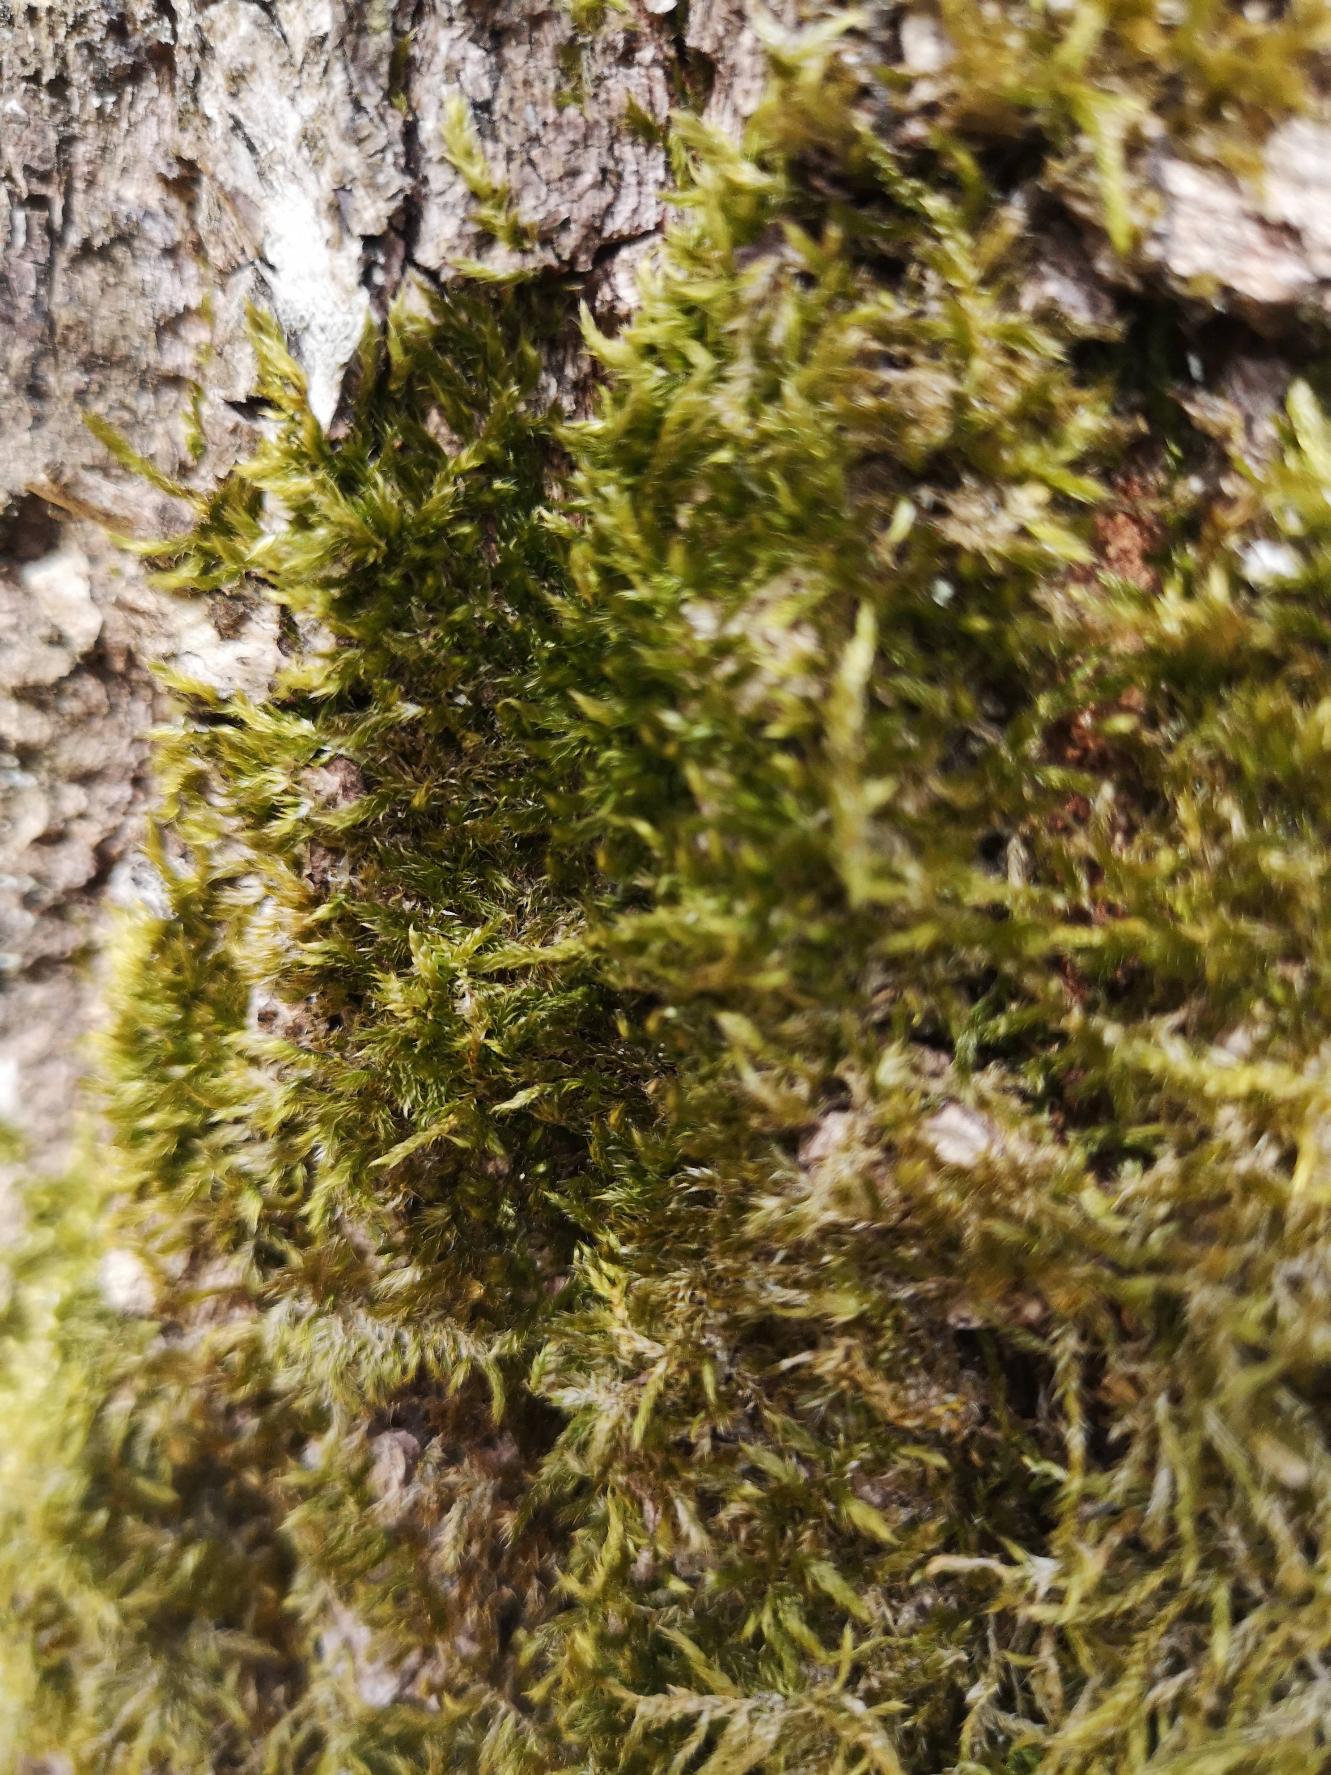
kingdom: Plantae
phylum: Bryophyta
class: Bryopsida
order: Hypnales
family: Hypnaceae
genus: Hypnum
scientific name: Hypnum
